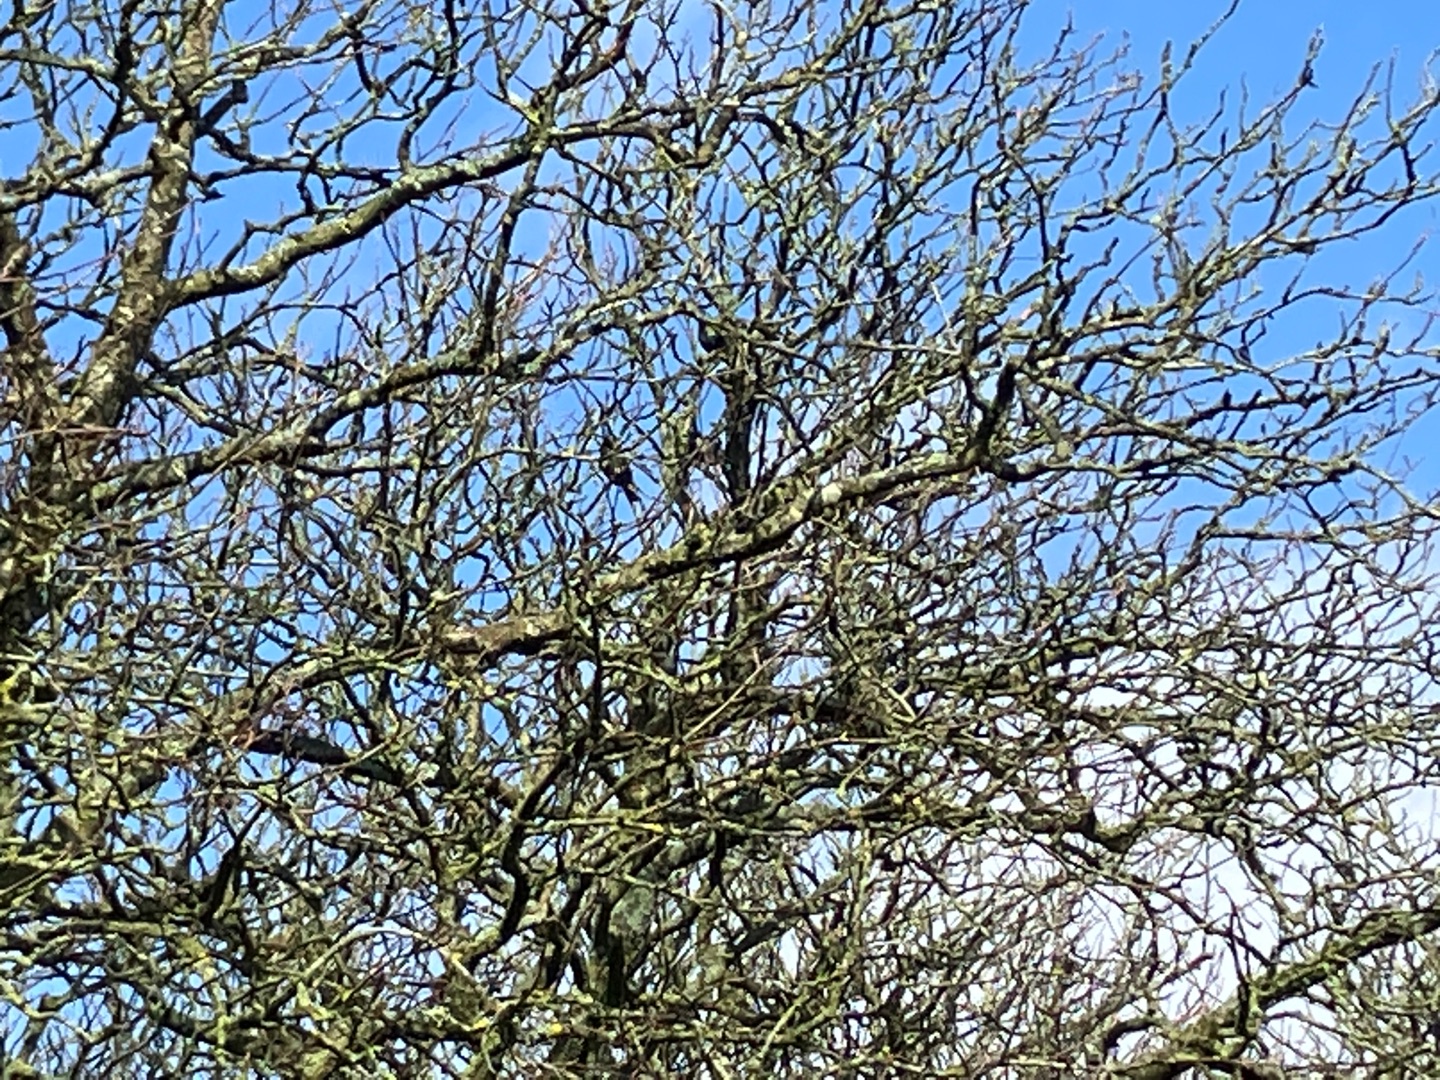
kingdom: Animalia
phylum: Chordata
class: Aves
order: Passeriformes
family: Sturnidae
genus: Sturnus
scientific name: Sturnus vulgaris
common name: Stær
